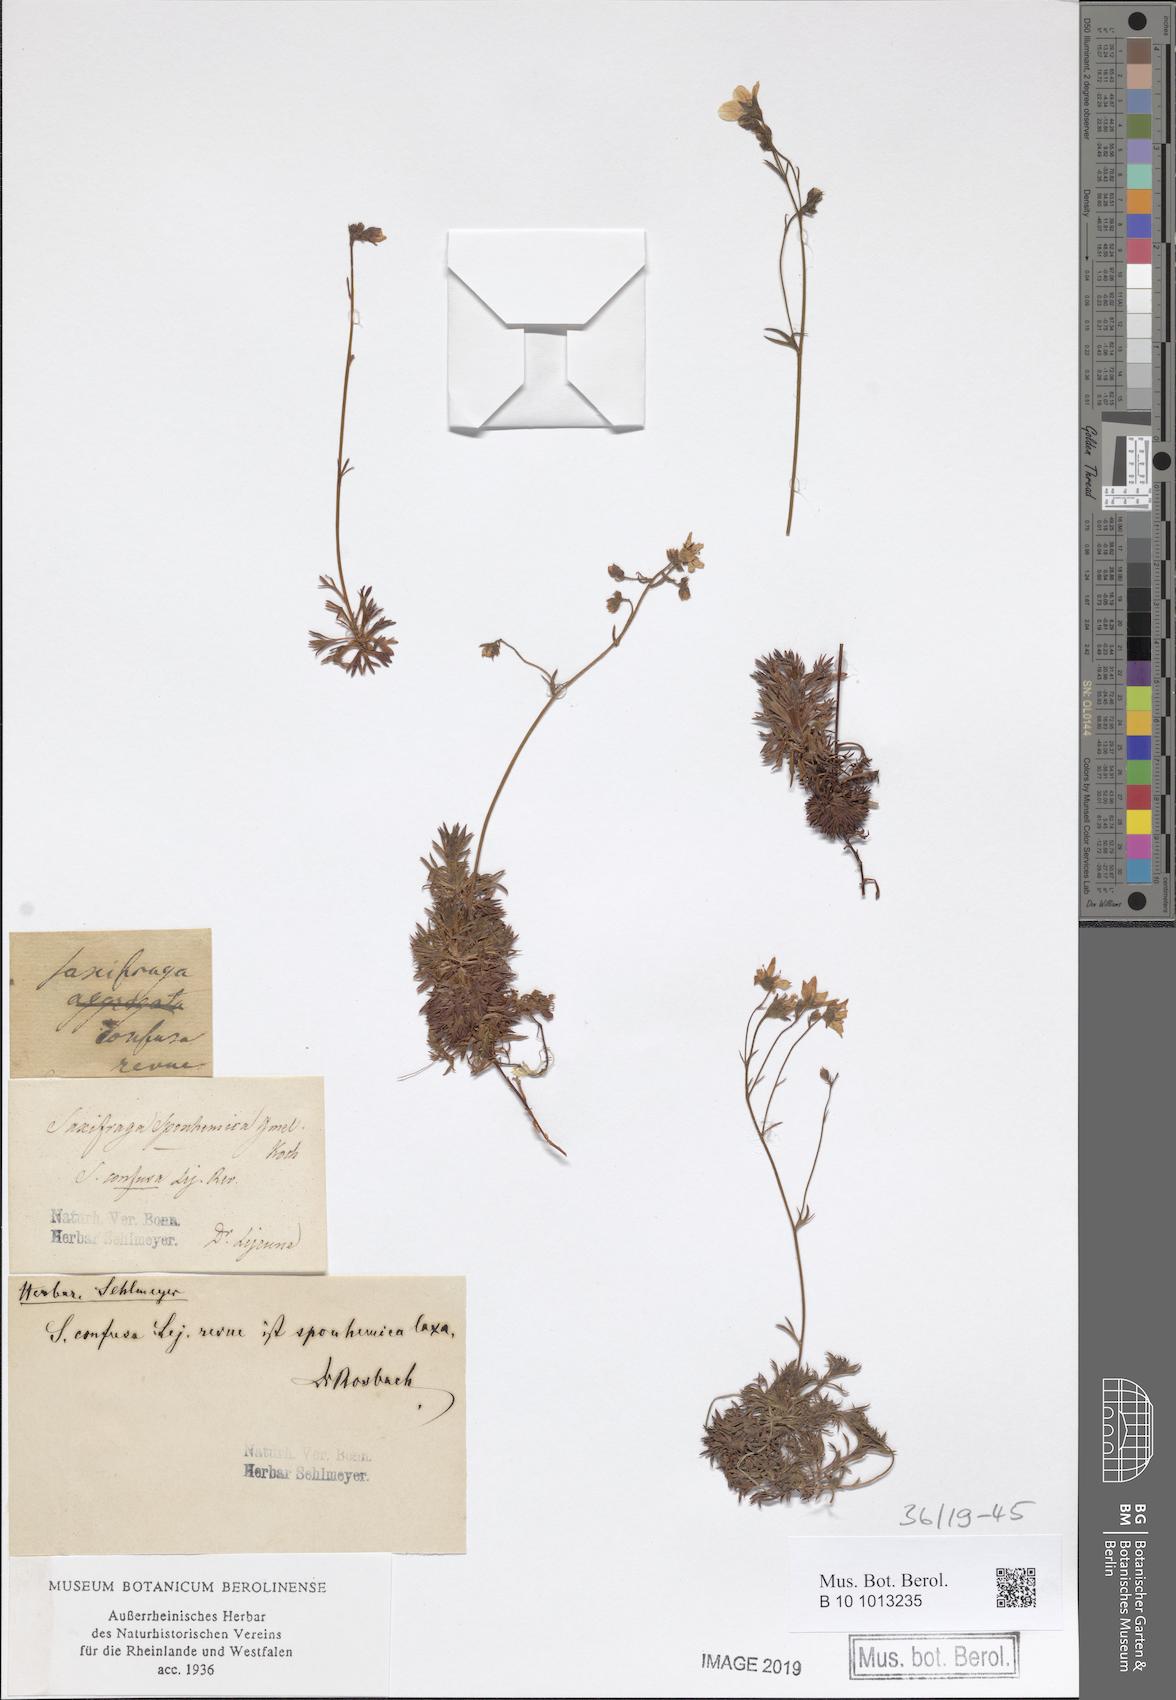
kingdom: Plantae
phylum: Tracheophyta
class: Magnoliopsida
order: Saxifragales
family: Saxifragaceae
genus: Saxifraga
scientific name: Saxifraga rosacea
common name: Irish saxifrage
